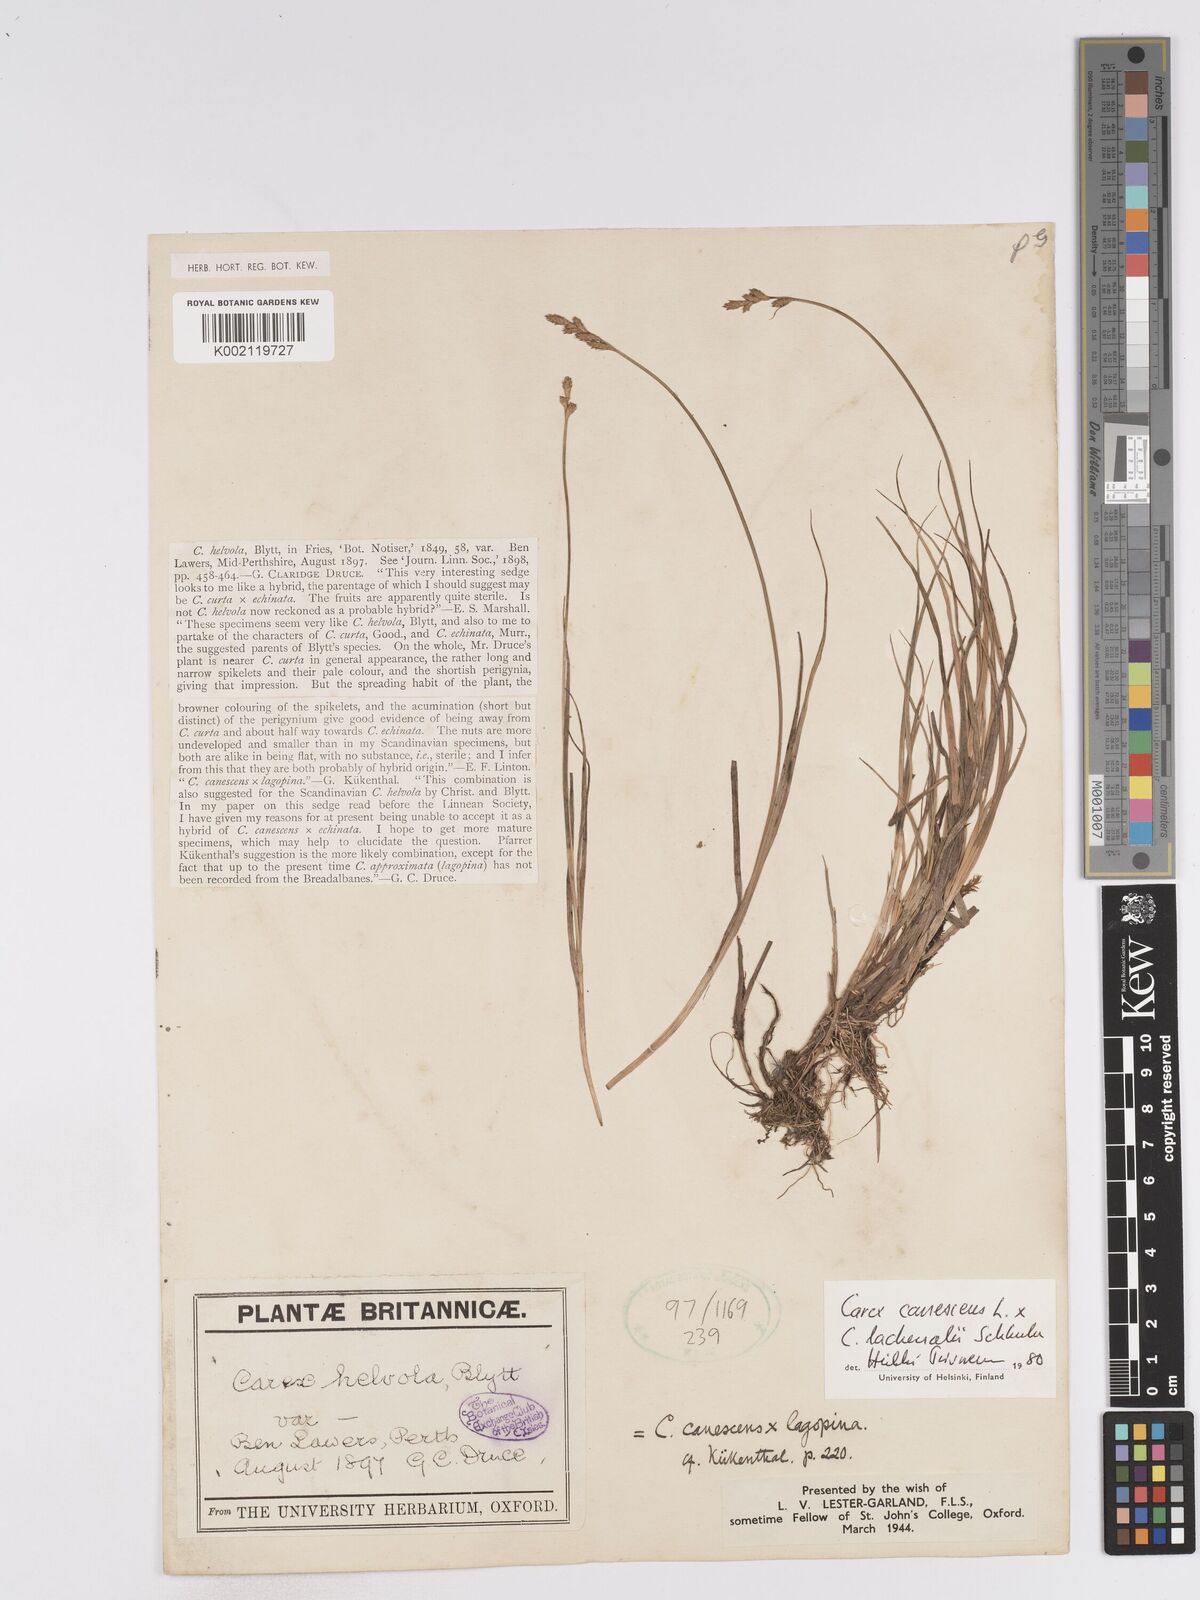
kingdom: Plantae
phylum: Tracheophyta
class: Liliopsida
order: Poales
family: Cyperaceae
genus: Carex
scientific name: Carex helvola
